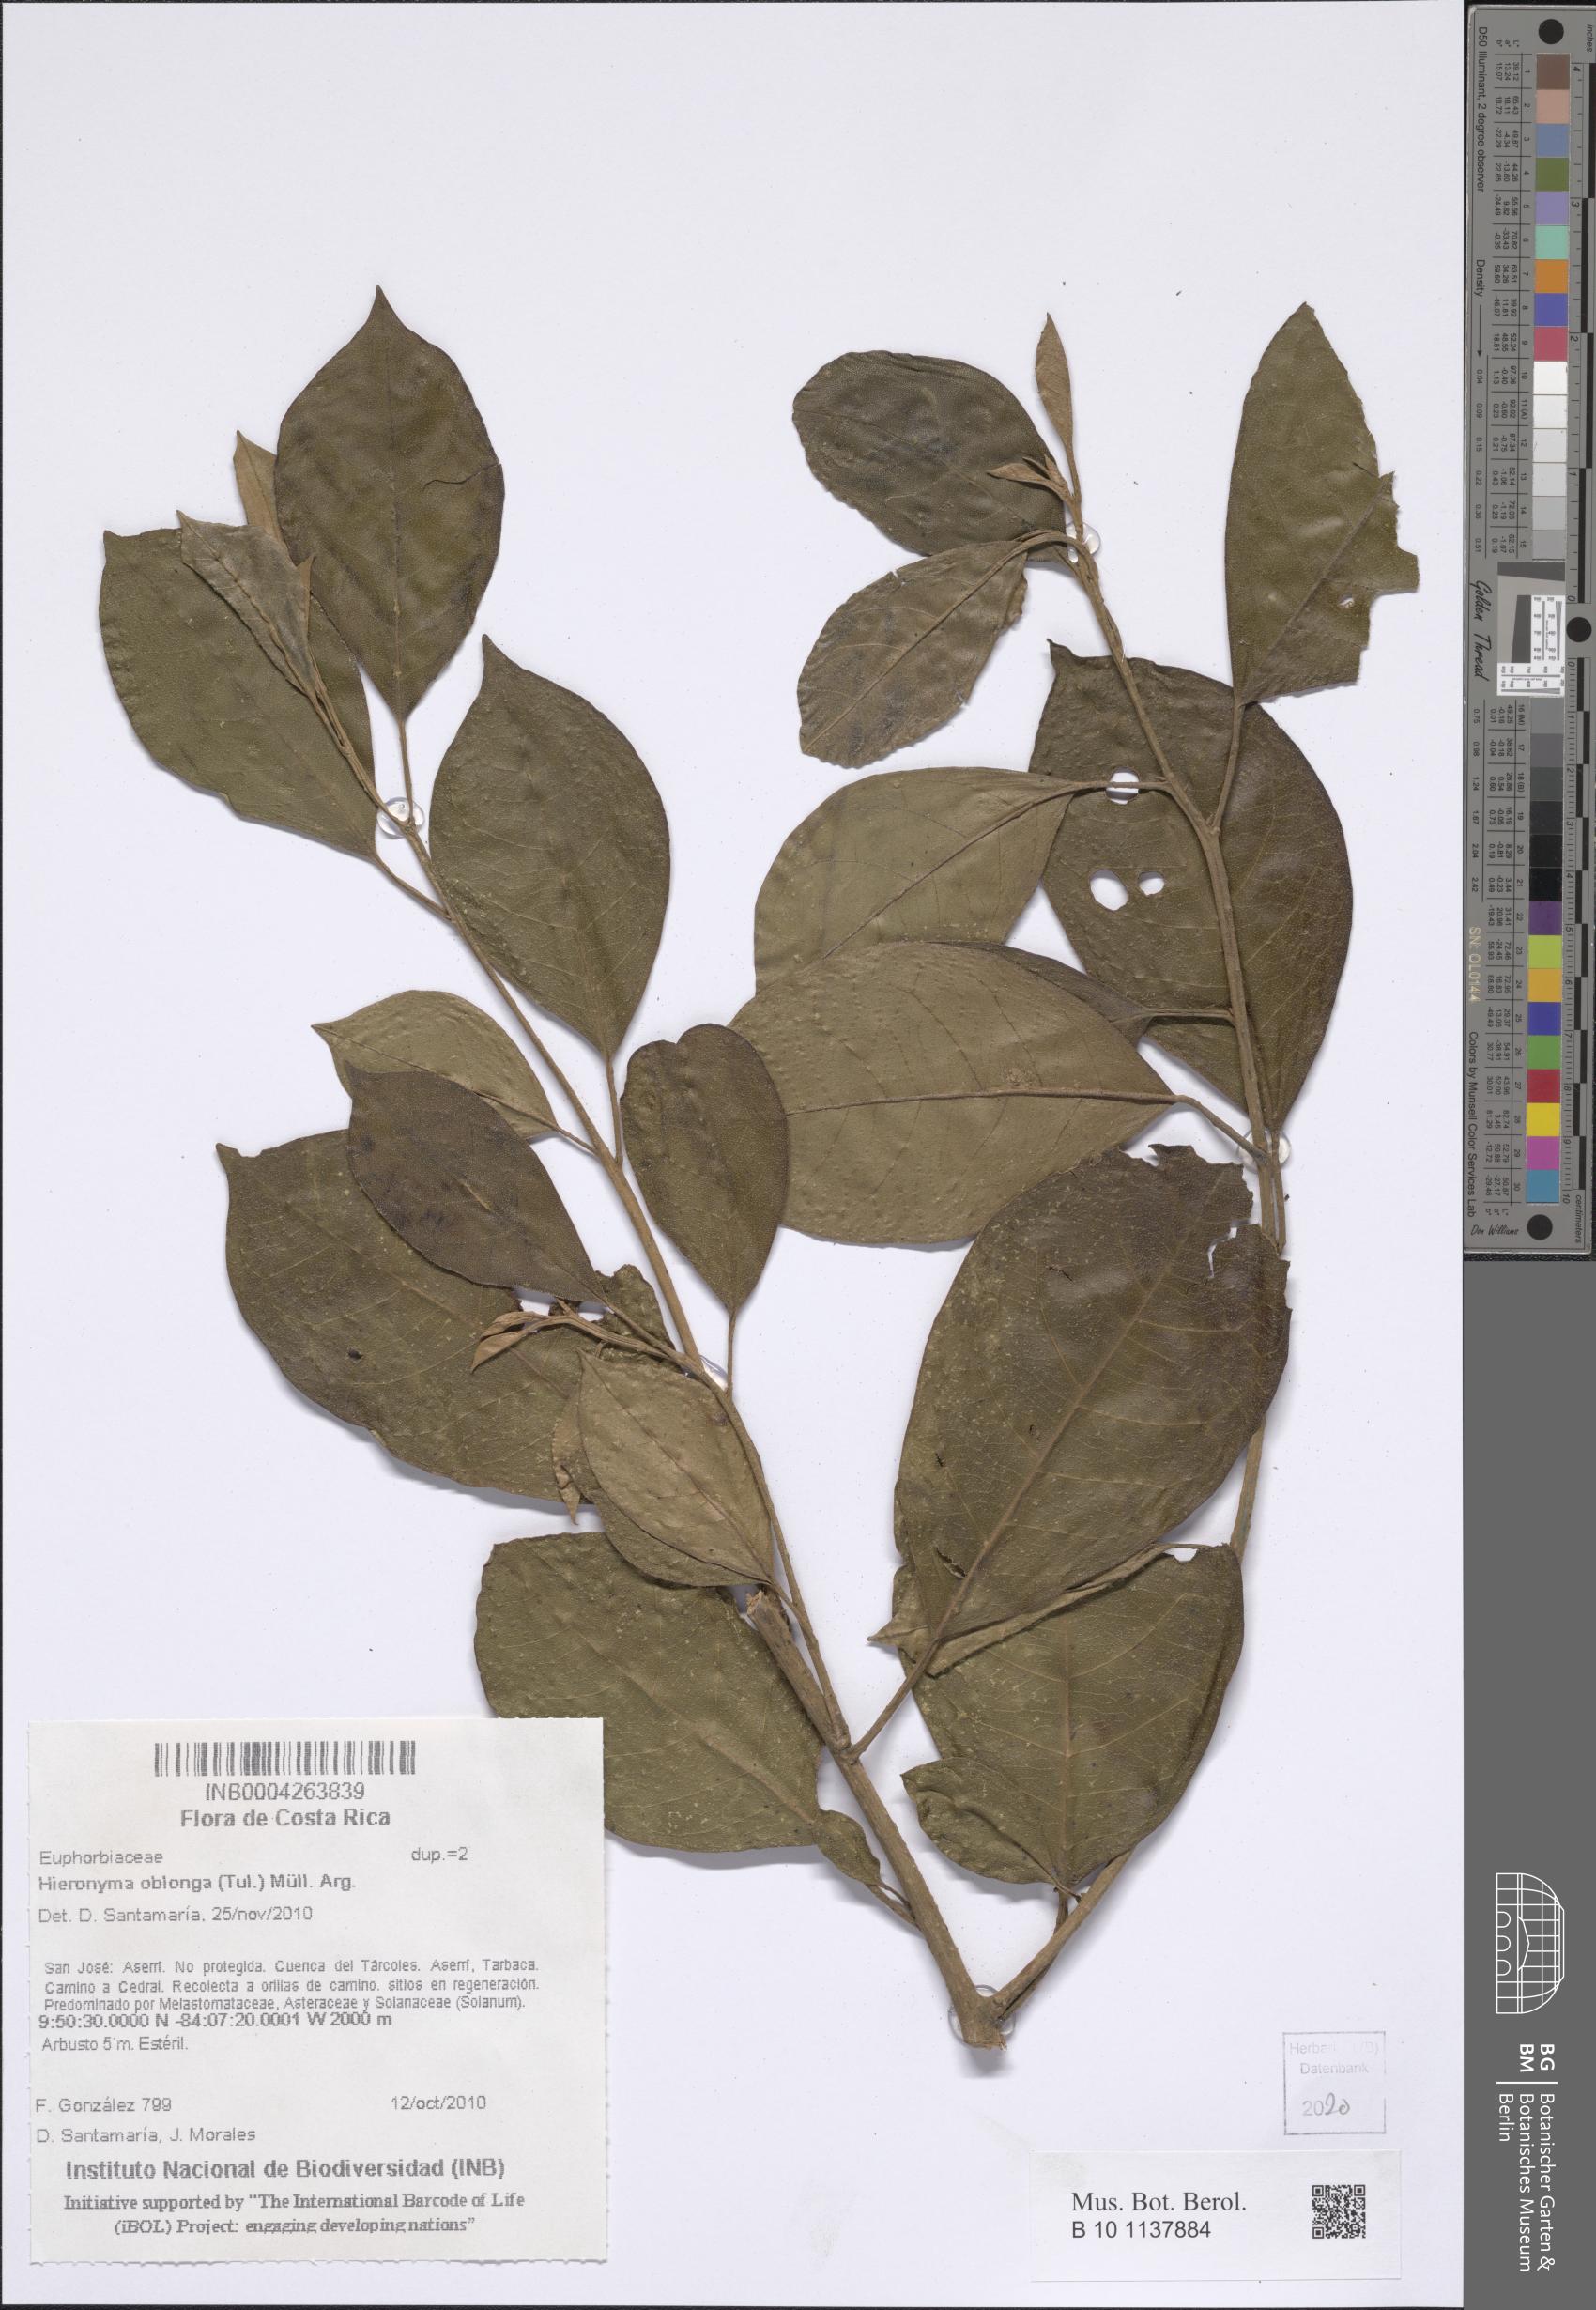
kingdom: Plantae
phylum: Tracheophyta
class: Magnoliopsida
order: Malpighiales
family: Phyllanthaceae
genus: Hieronyma
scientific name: Hieronyma oblonga
